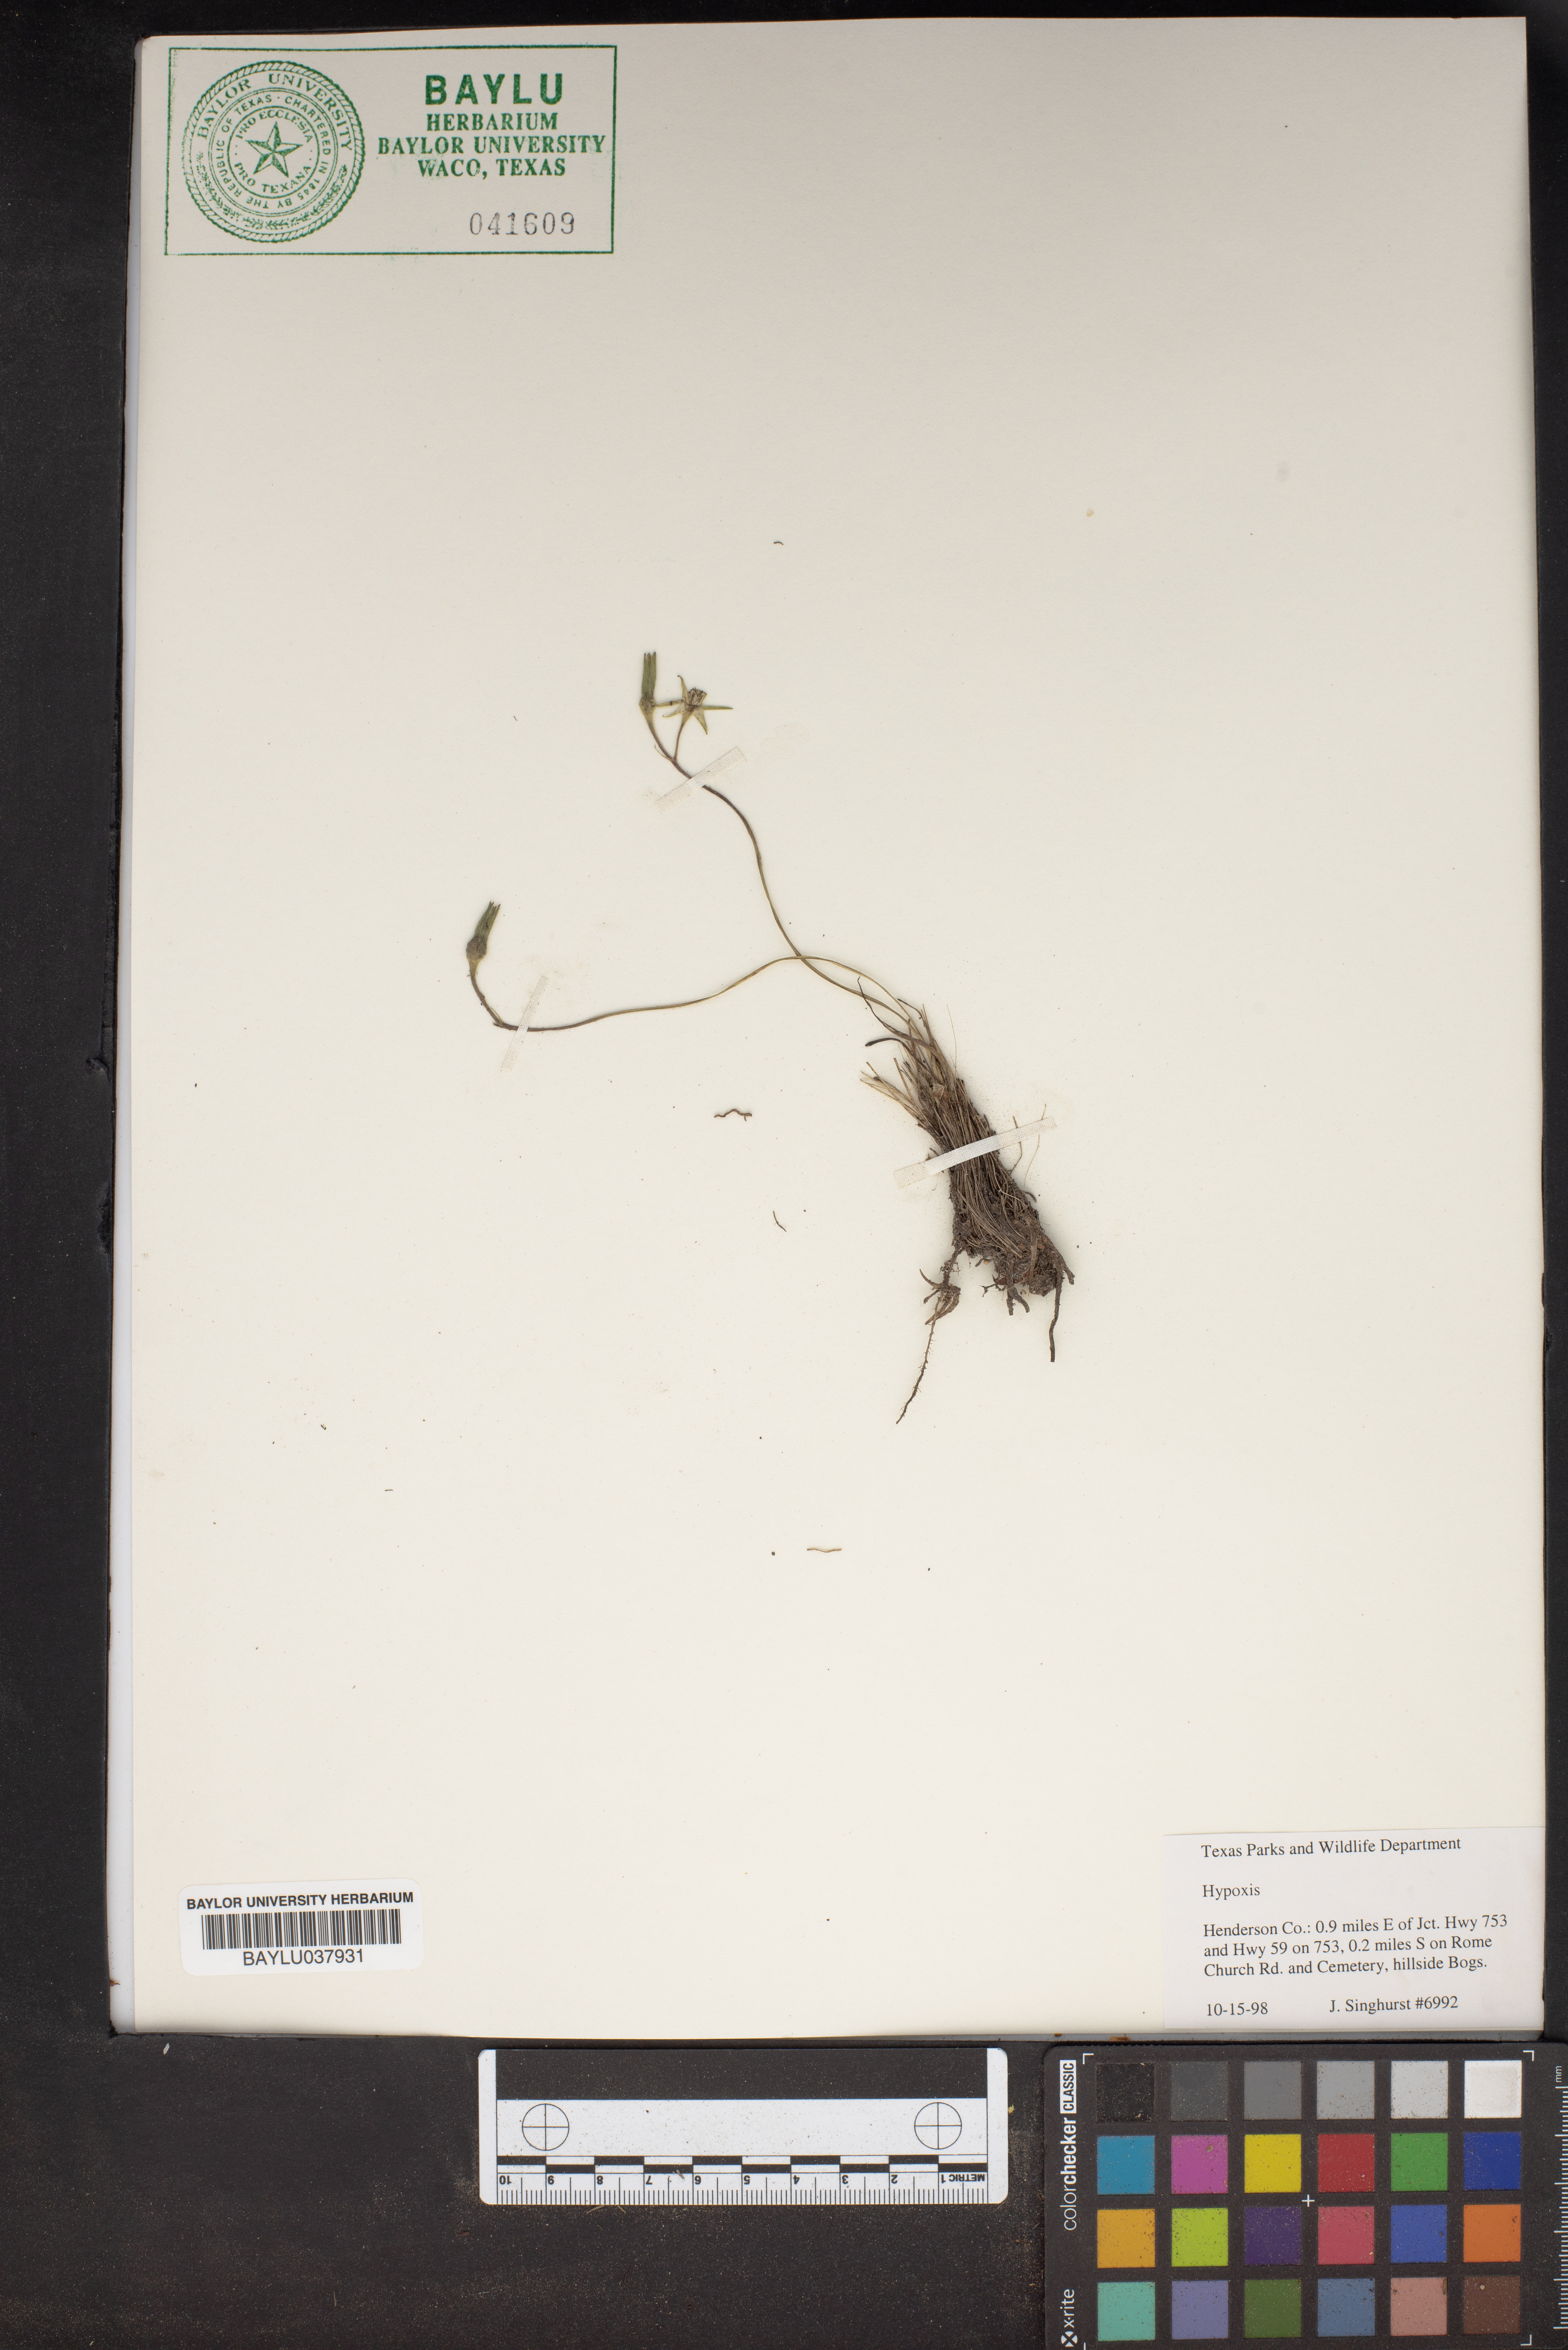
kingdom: Plantae
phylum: Tracheophyta
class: Liliopsida
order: Asparagales
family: Hypoxidaceae
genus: Hypoxis
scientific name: Hypoxis
